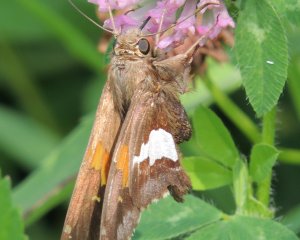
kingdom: Animalia
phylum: Arthropoda
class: Insecta
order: Lepidoptera
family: Hesperiidae
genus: Epargyreus
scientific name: Epargyreus clarus
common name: Silver-spotted Skipper
